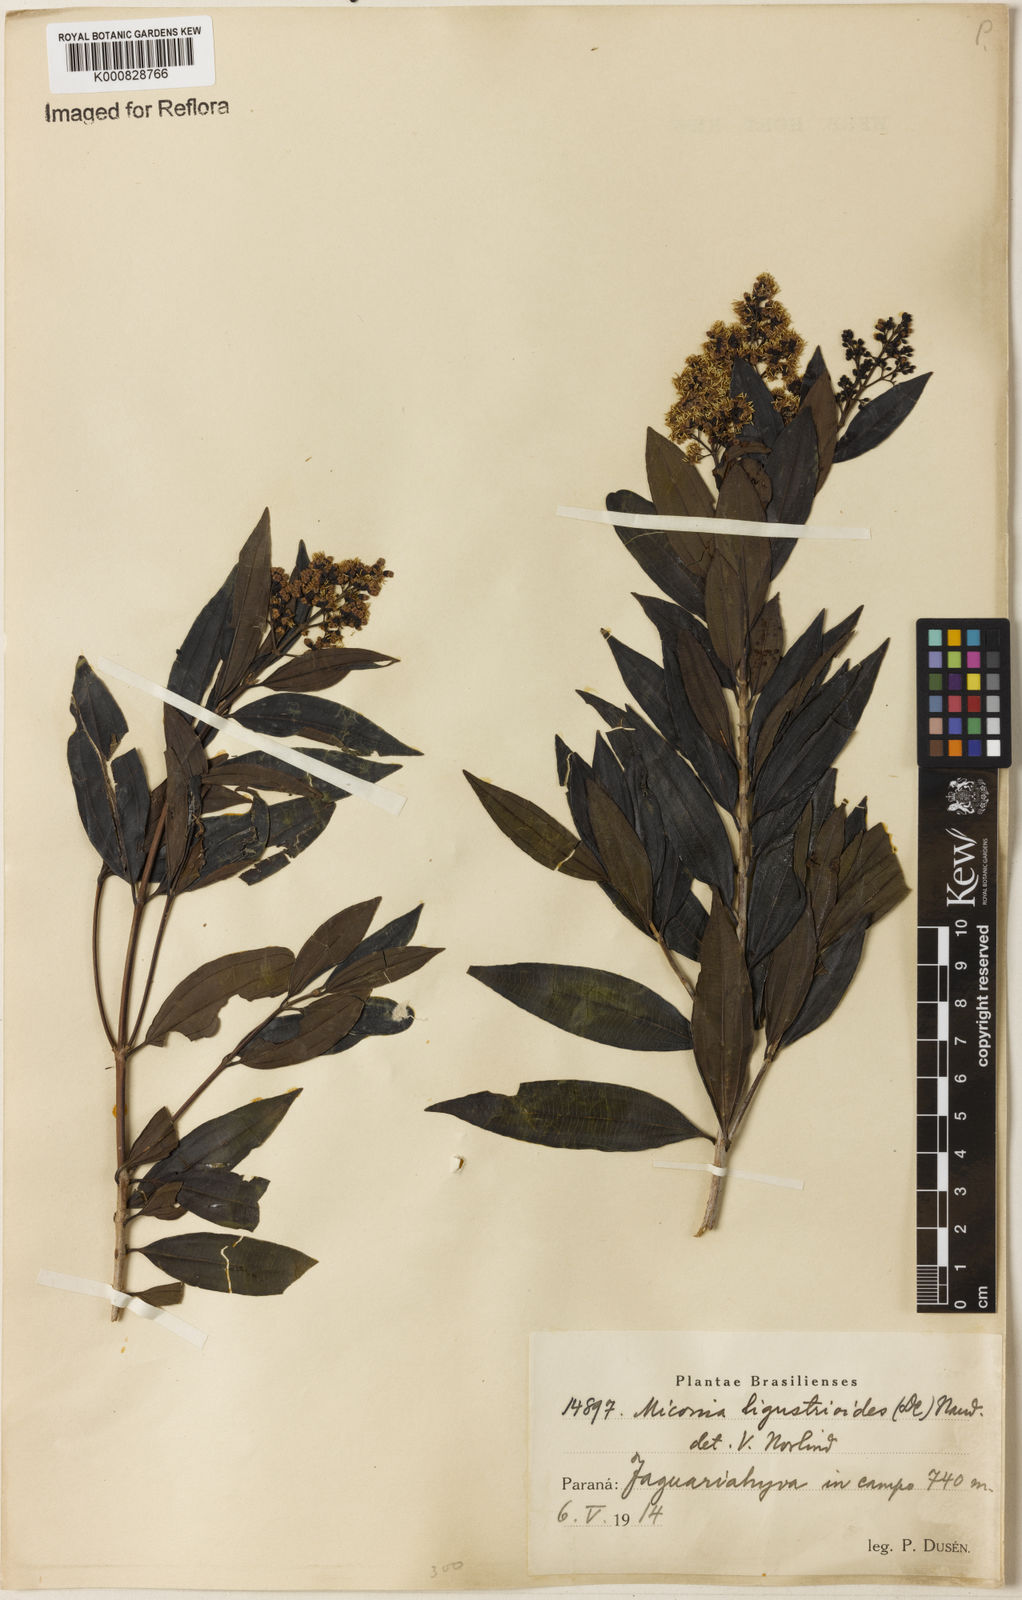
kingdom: Plantae
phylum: Tracheophyta
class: Magnoliopsida
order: Myrtales
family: Melastomataceae
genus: Miconia
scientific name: Miconia ligustroides
